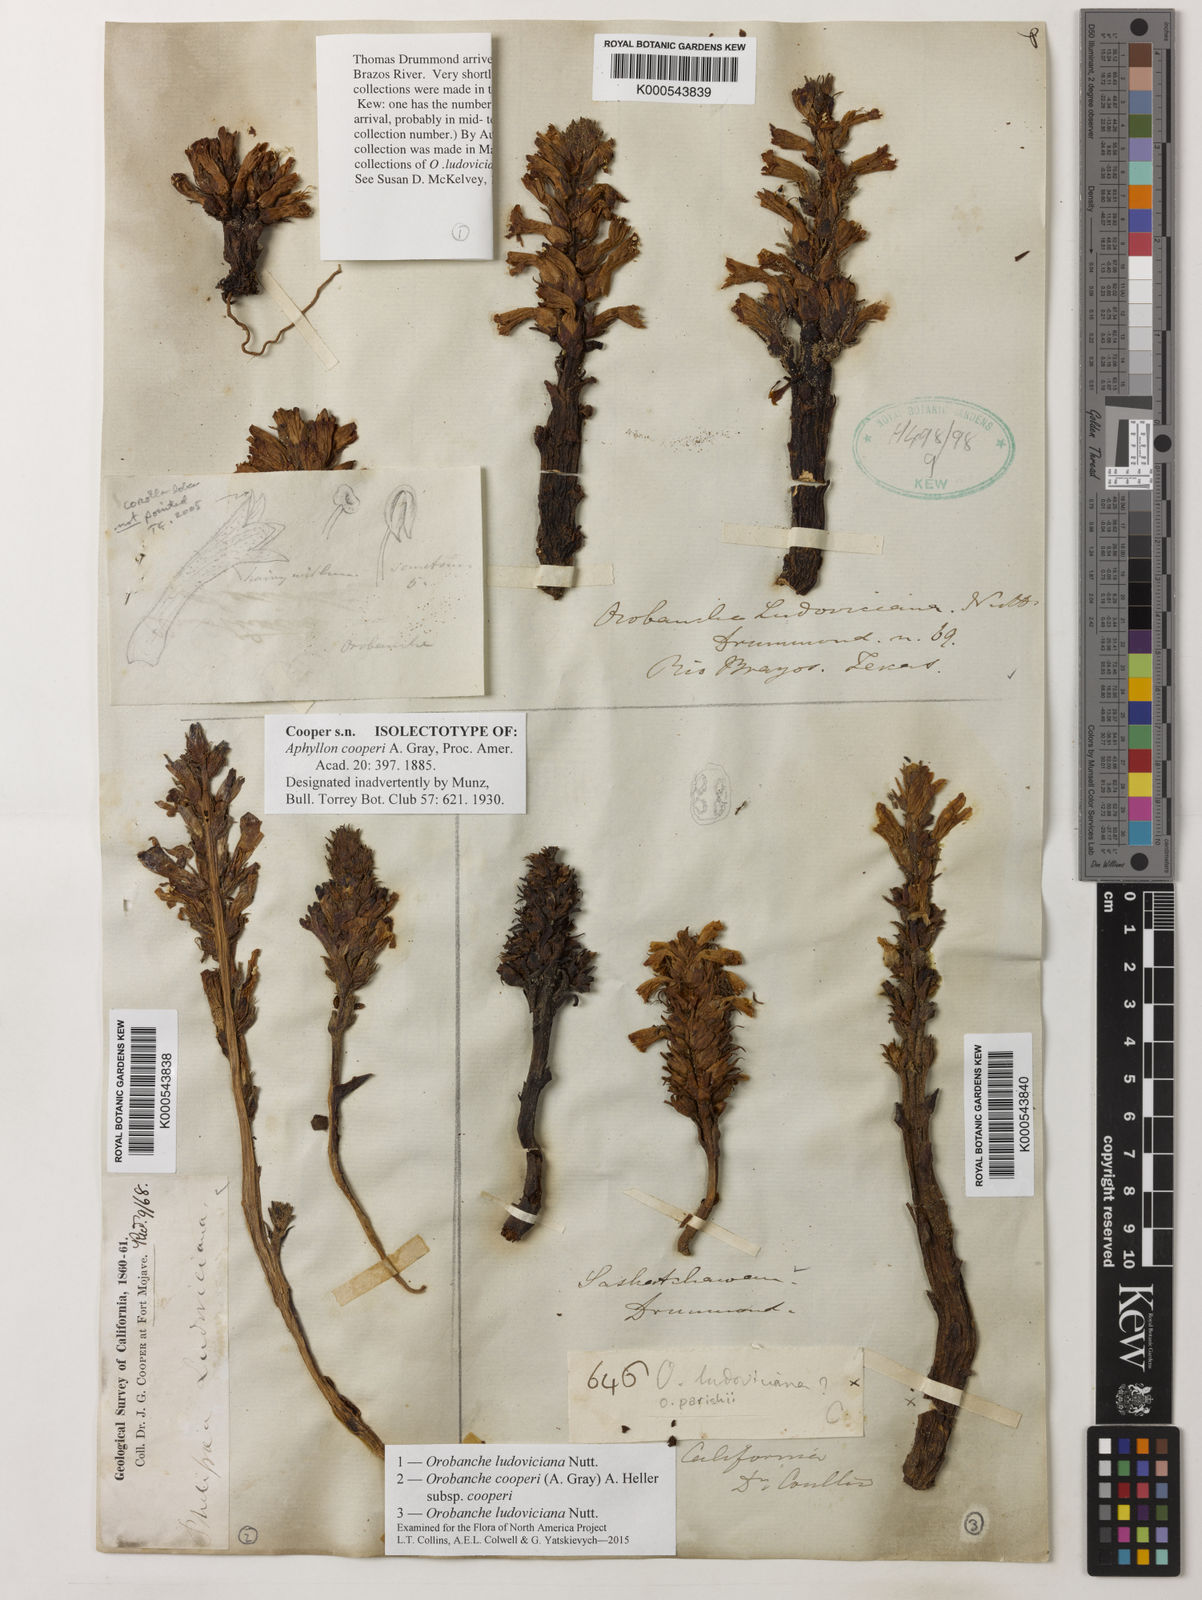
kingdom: Plantae
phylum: Tracheophyta
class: Magnoliopsida
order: Lamiales
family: Orobanchaceae
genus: Aphyllon
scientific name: Aphyllon cooperi
